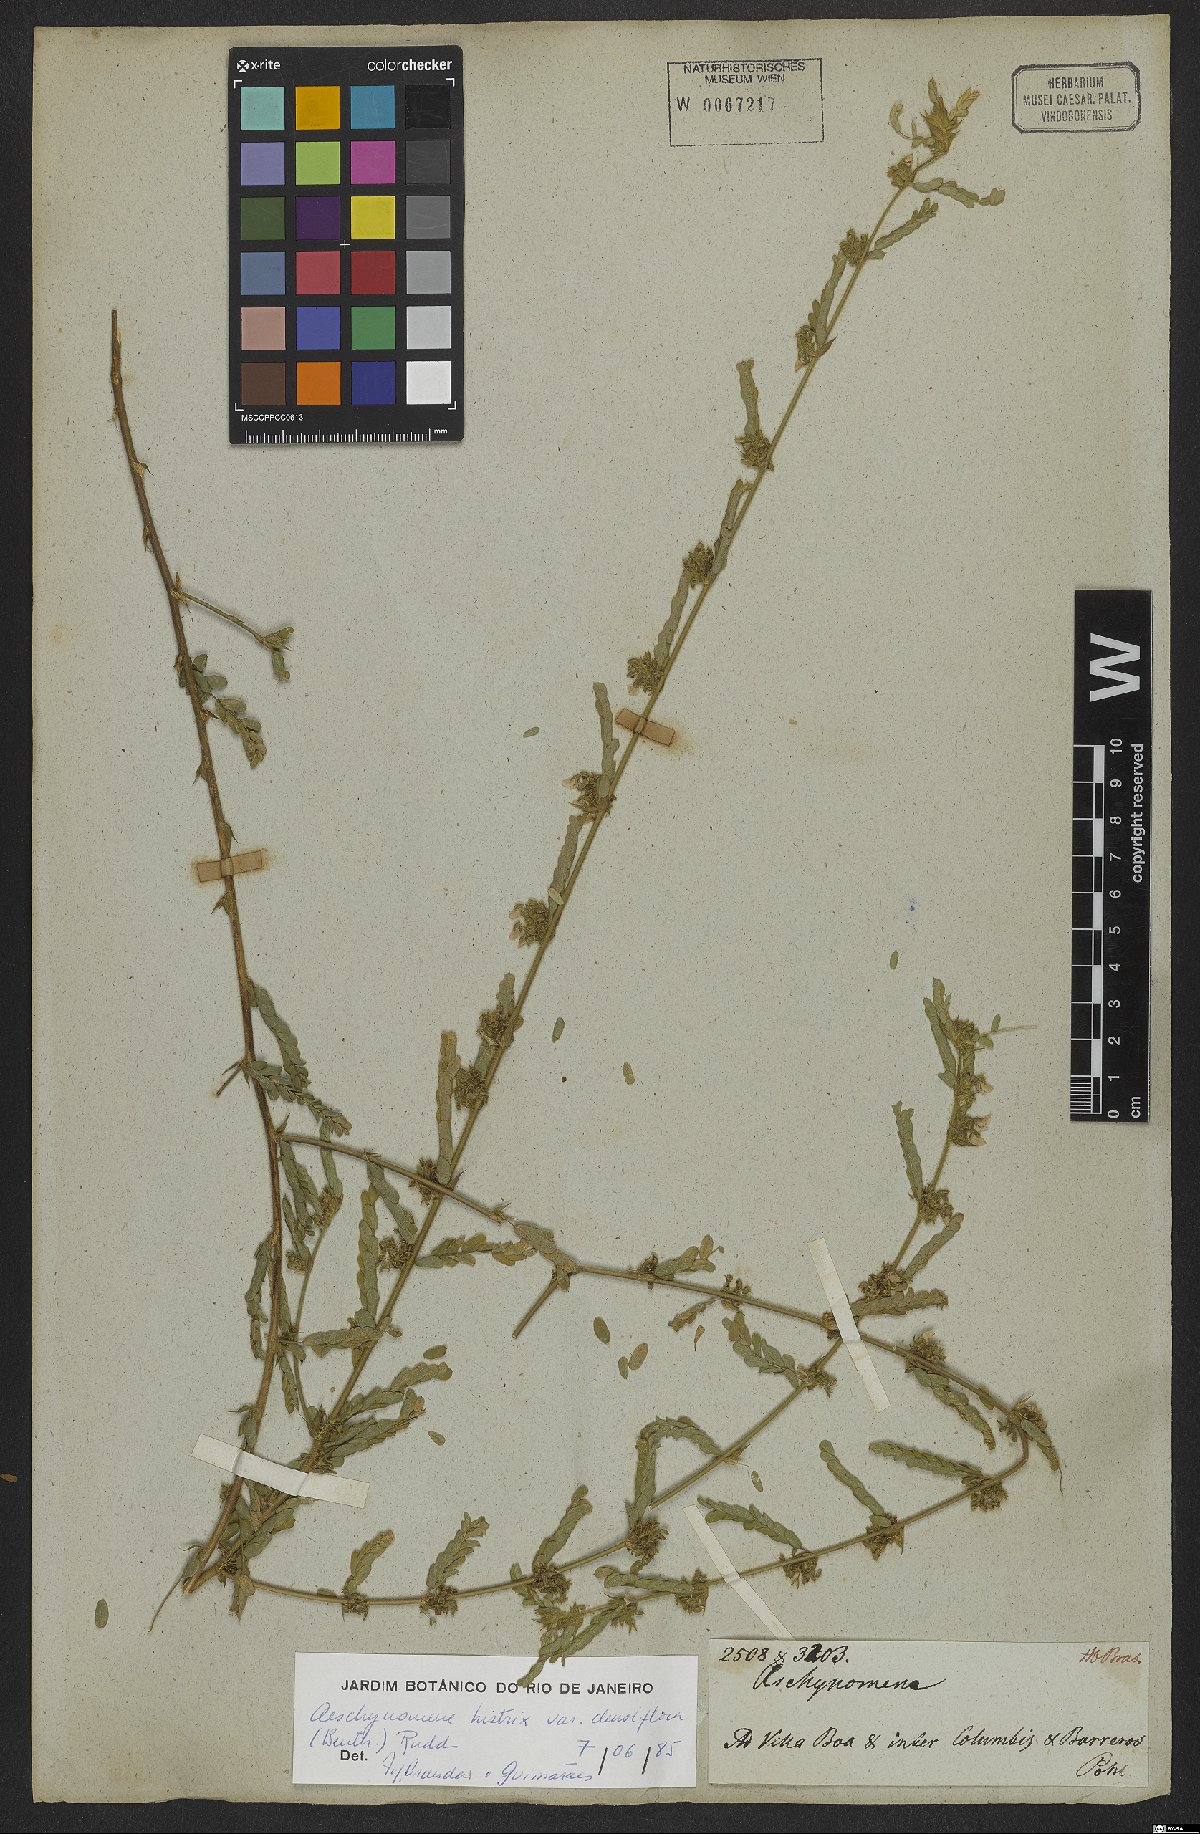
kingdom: Plantae
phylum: Tracheophyta
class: Magnoliopsida
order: Fabales
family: Fabaceae
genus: Ctenodon
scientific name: Ctenodon histrix
